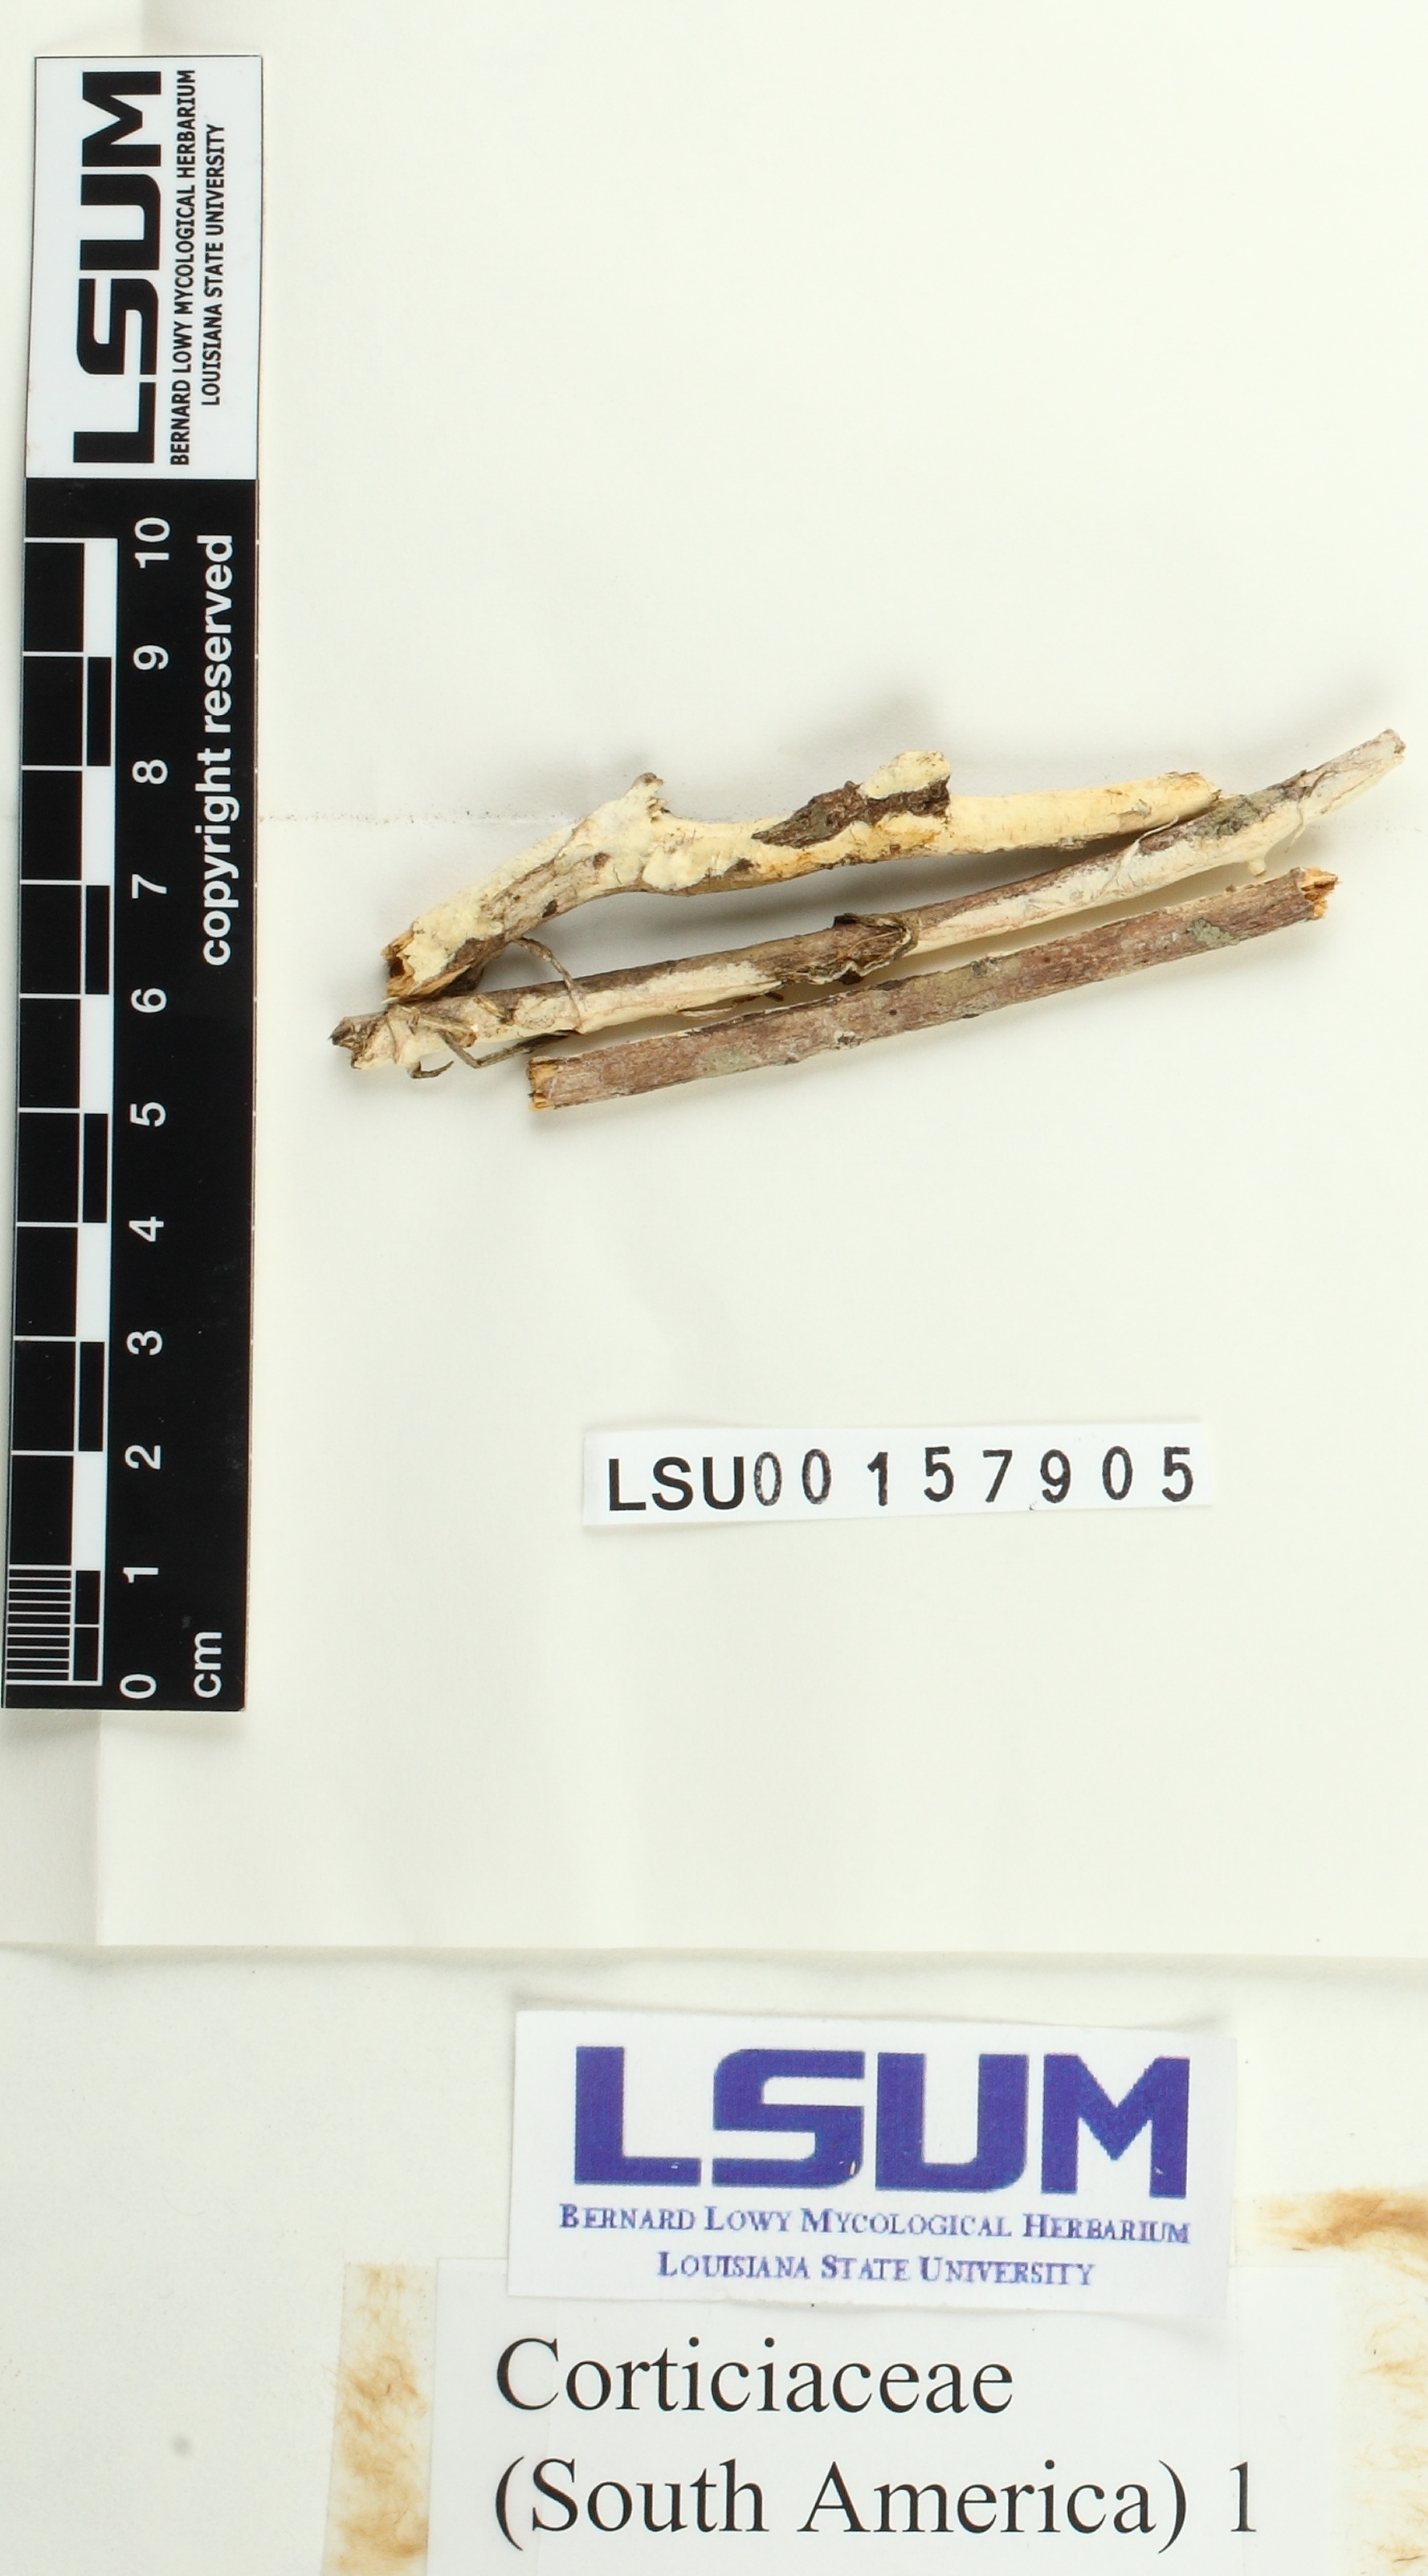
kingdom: Fungi
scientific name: Fungi
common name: Fungi
